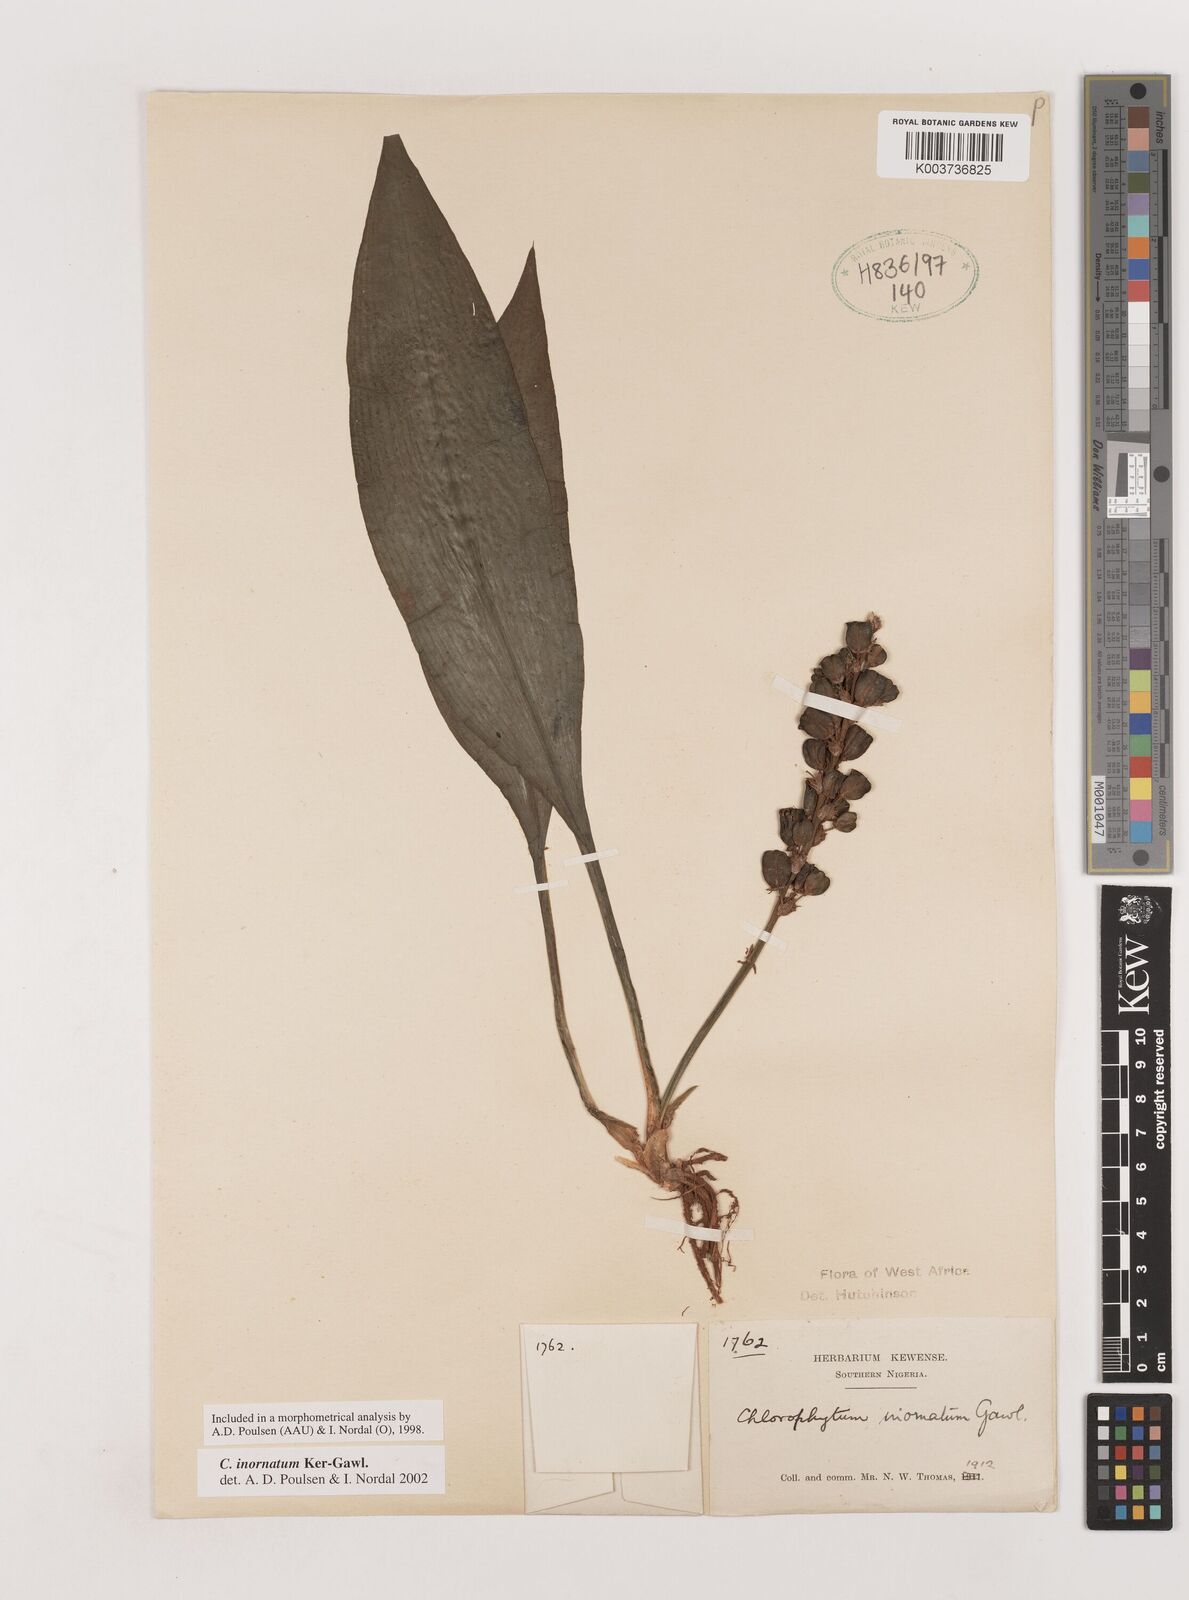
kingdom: Plantae
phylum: Tracheophyta
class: Liliopsida
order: Asparagales
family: Asparagaceae
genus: Chlorophytum
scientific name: Chlorophytum inornatum
